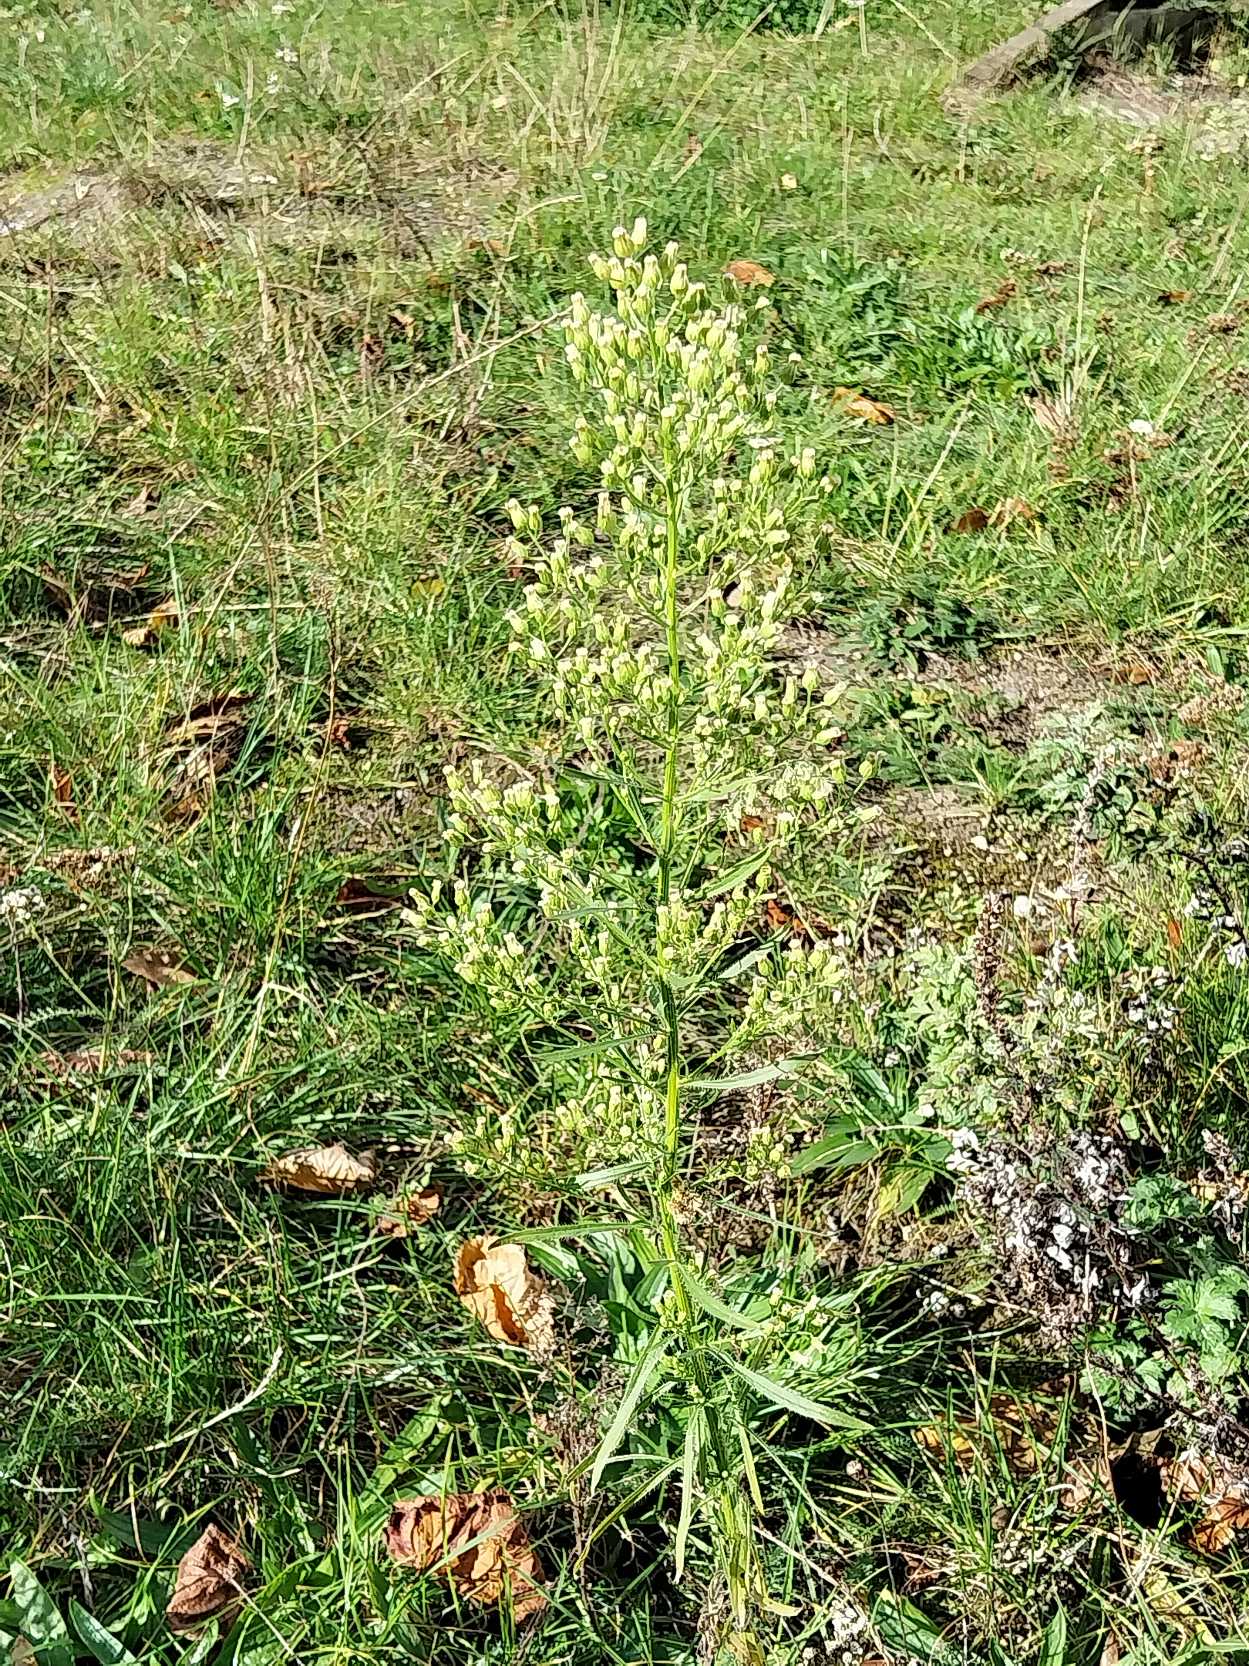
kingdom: Plantae
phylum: Tracheophyta
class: Magnoliopsida
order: Asterales
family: Asteraceae
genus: Erigeron
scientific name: Erigeron canadensis
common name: Kanadisk bakkestjerne
